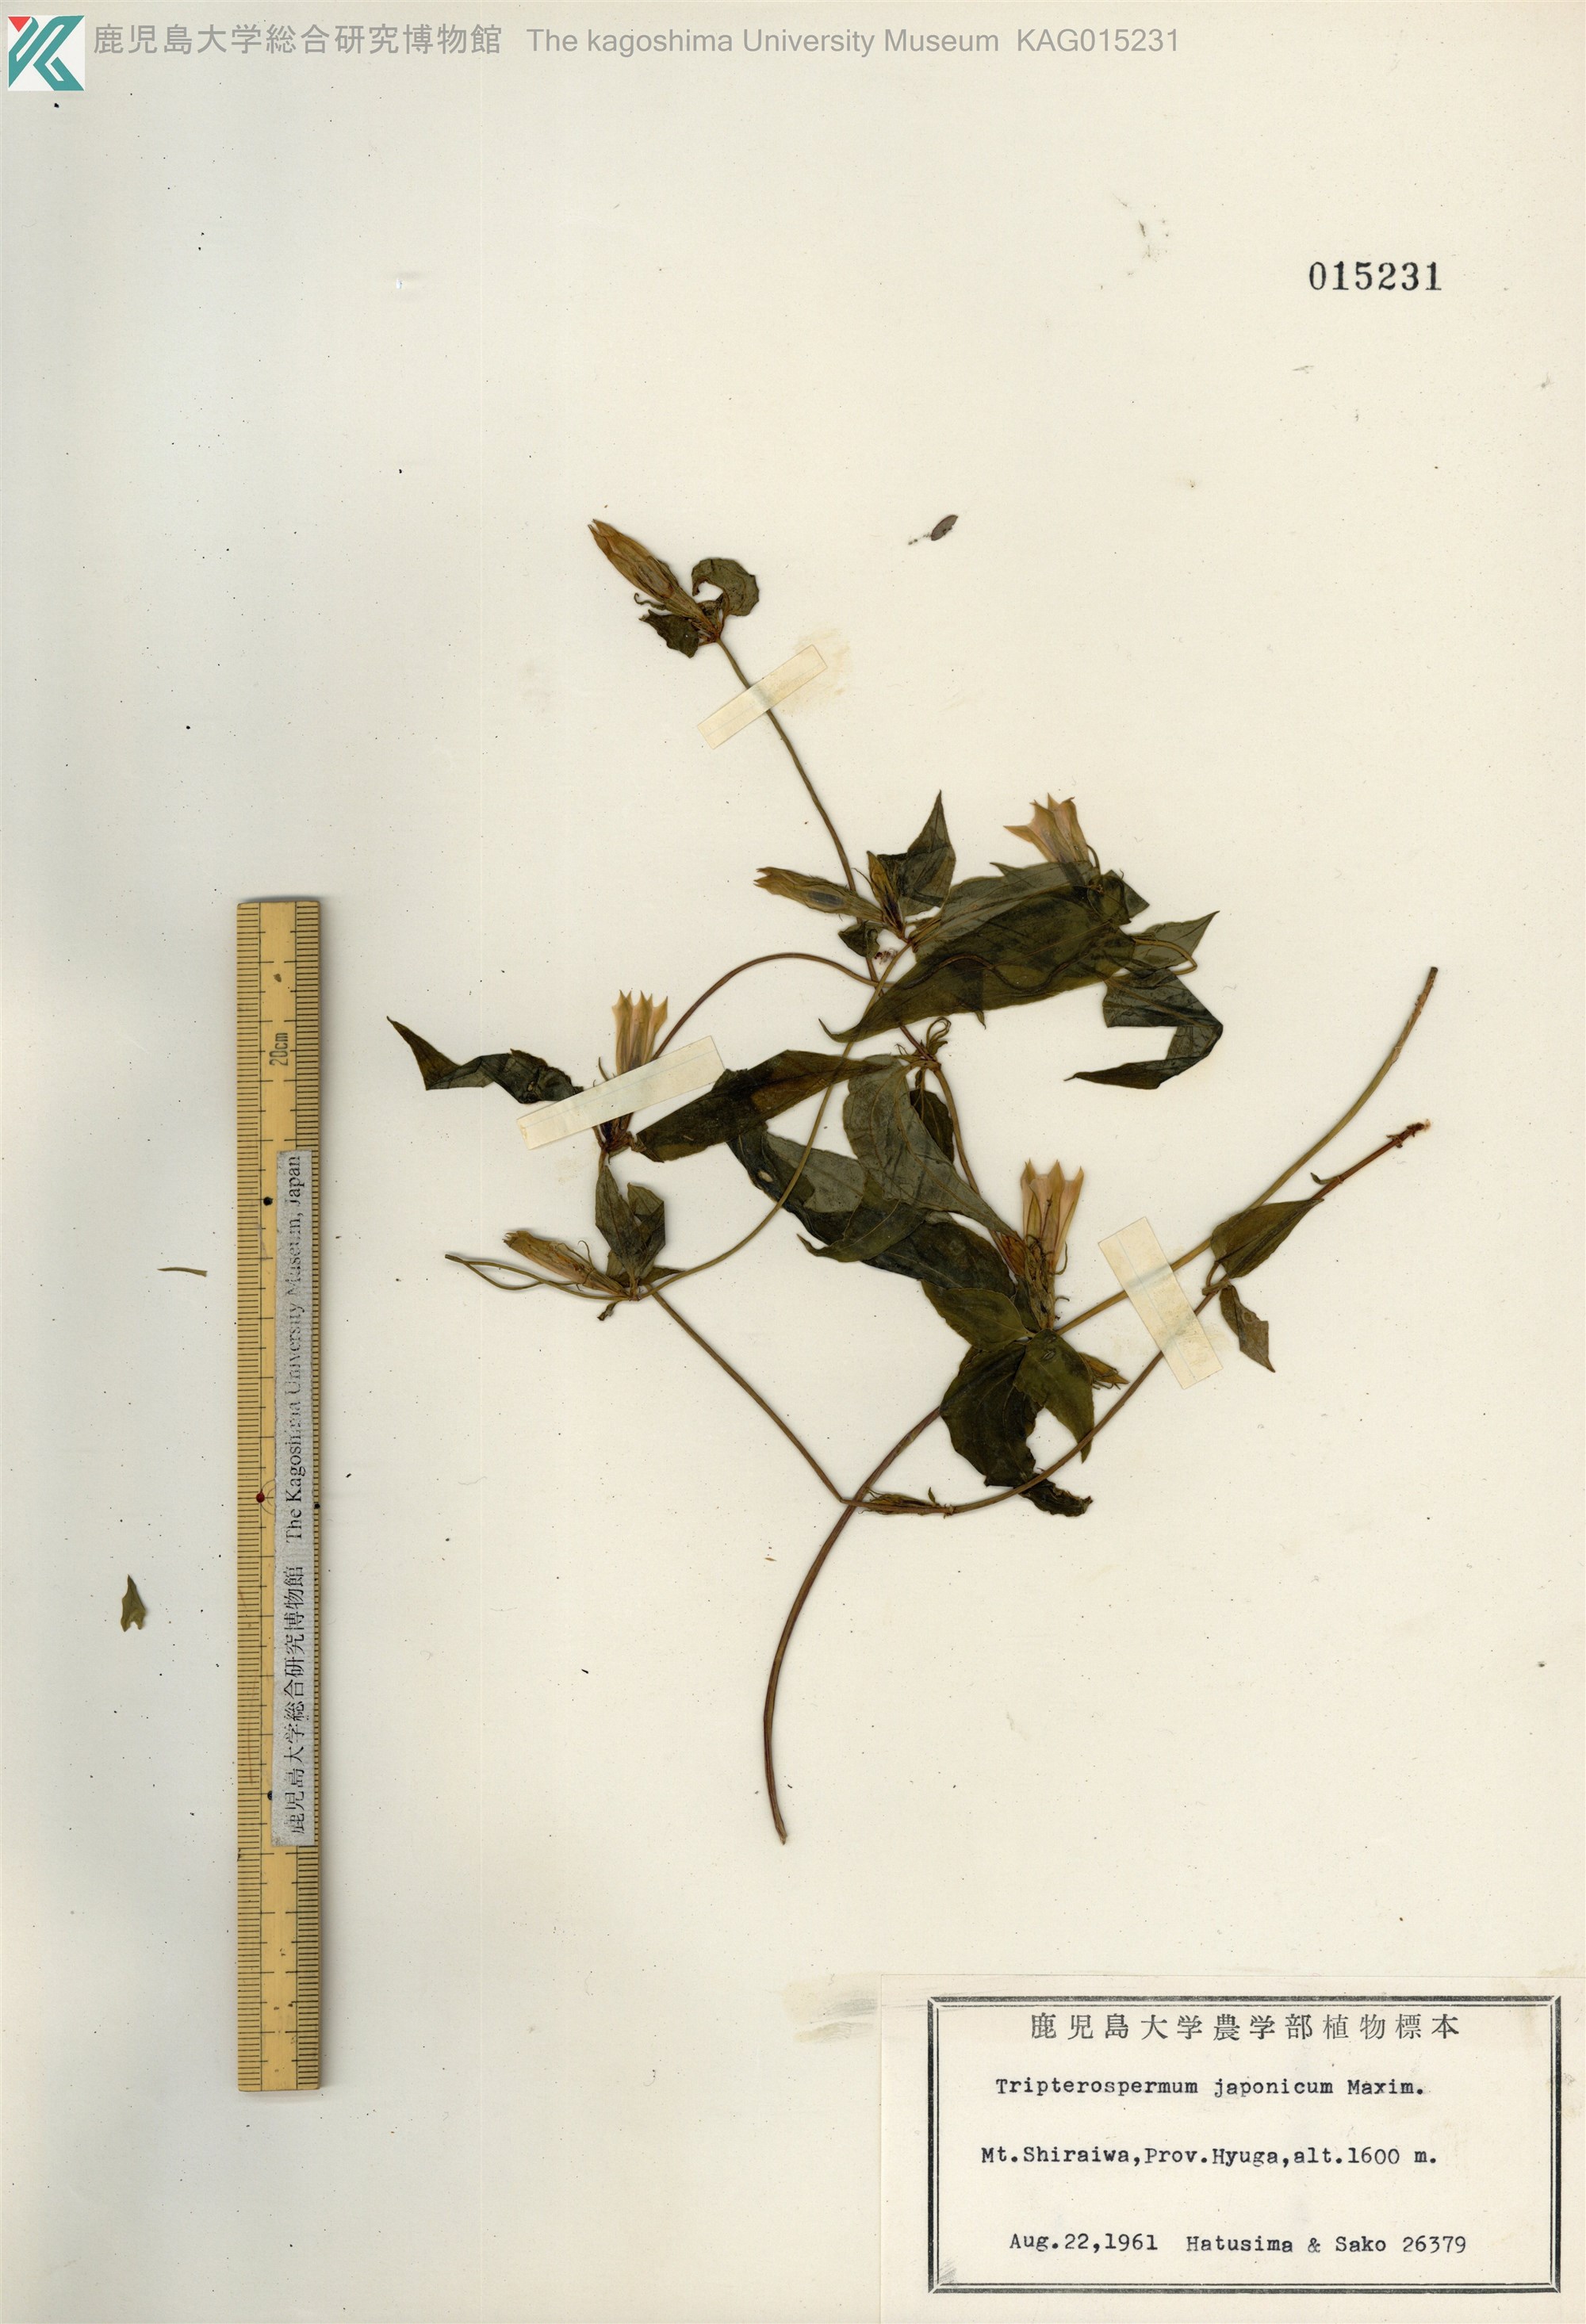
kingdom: Plantae
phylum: Tracheophyta
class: Magnoliopsida
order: Gentianales
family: Gentianaceae
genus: Tripterospermum
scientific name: Tripterospermum trinervium
